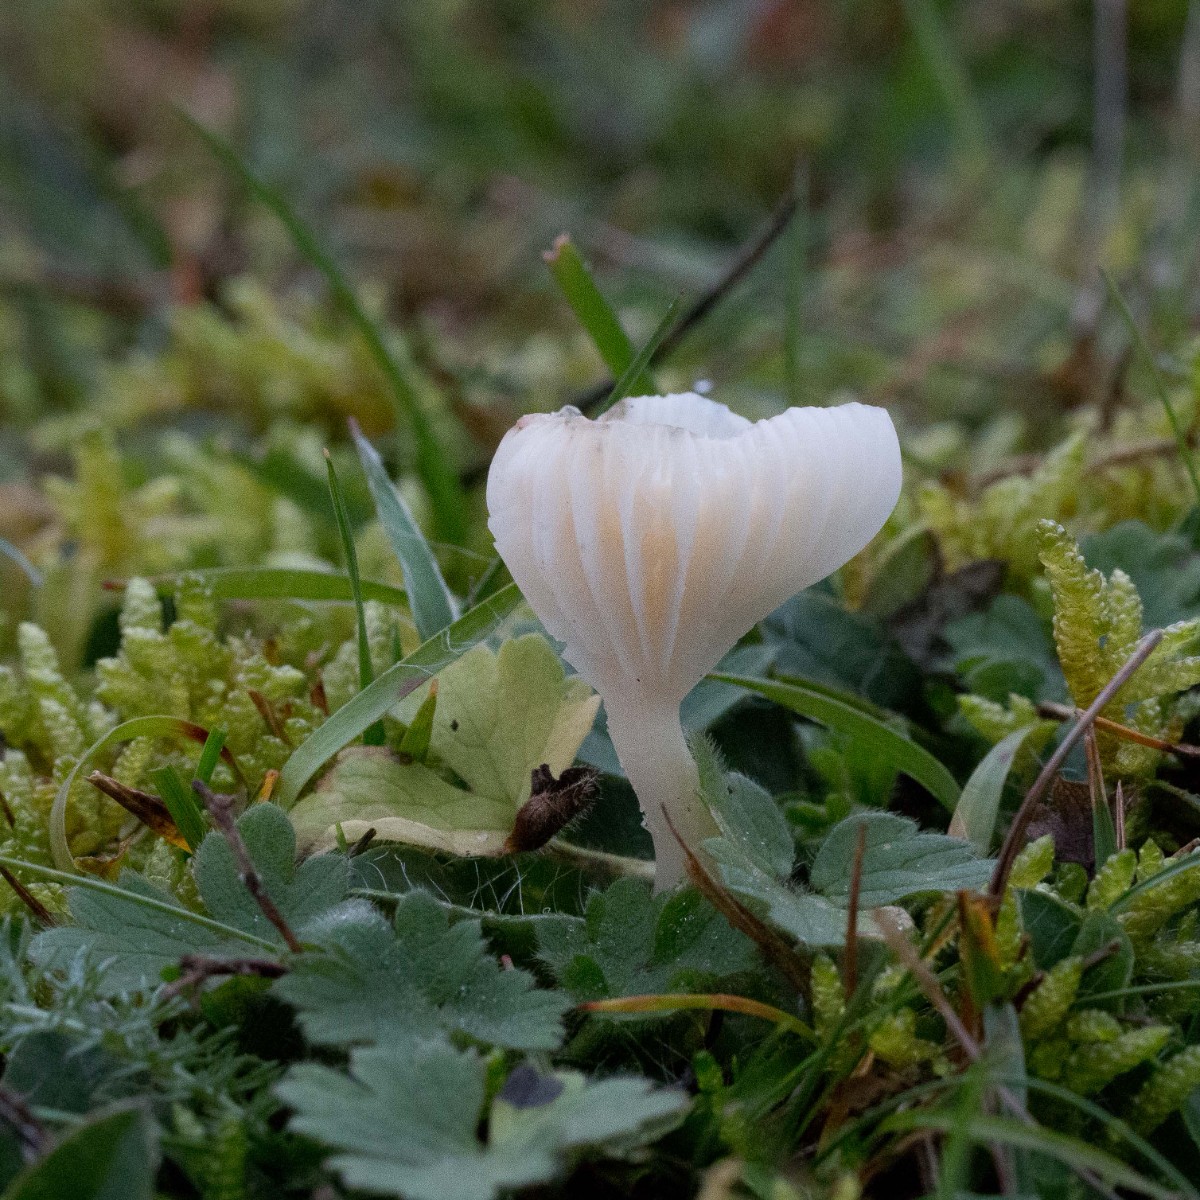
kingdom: Fungi
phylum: Basidiomycota
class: Agaricomycetes
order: Agaricales
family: Hygrophoraceae
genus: Cuphophyllus
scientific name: Cuphophyllus virgineus
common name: snehvid vokshat
